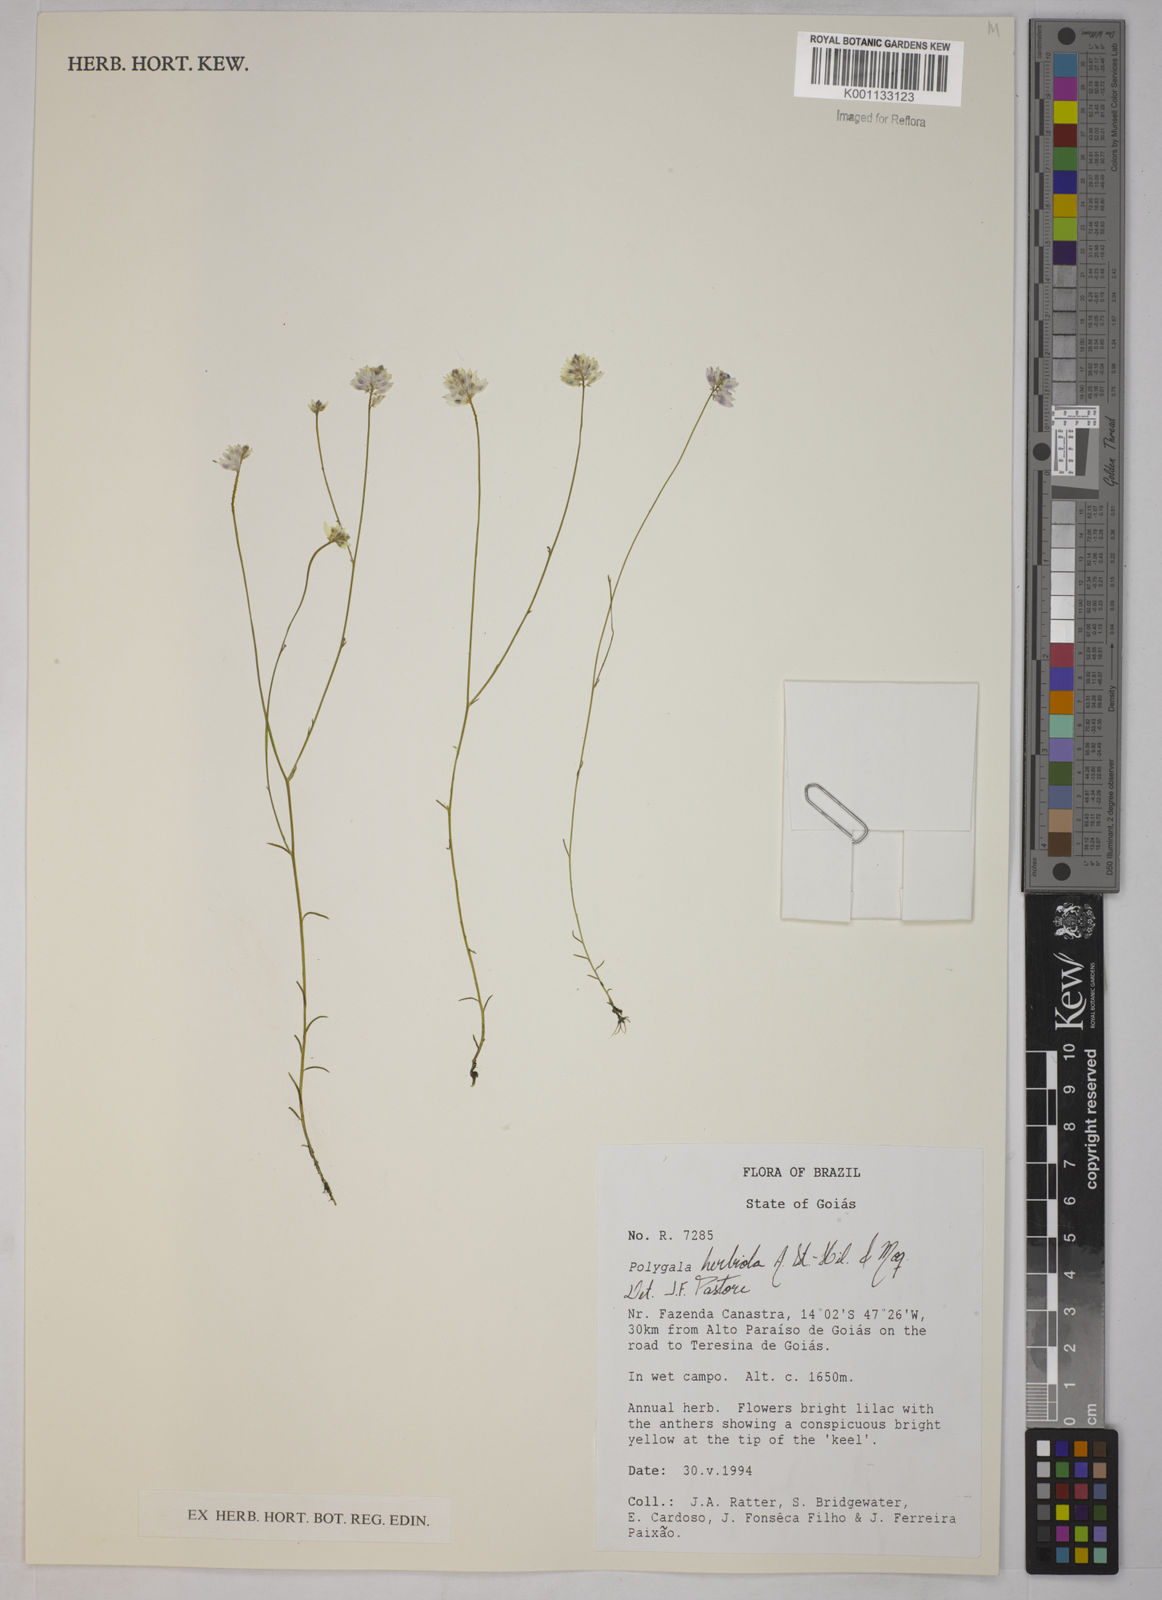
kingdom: Plantae
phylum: Tracheophyta
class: Magnoliopsida
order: Fabales
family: Polygalaceae
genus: Polygala
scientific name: Polygala herbiola
